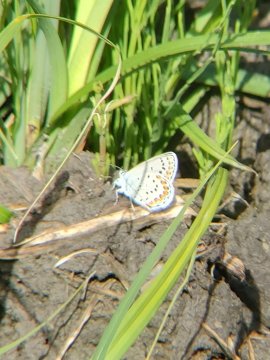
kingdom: Animalia
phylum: Arthropoda
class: Insecta
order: Lepidoptera
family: Lycaenidae
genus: Lycaeides
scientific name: Lycaeides melissa
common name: Melissa Blue
